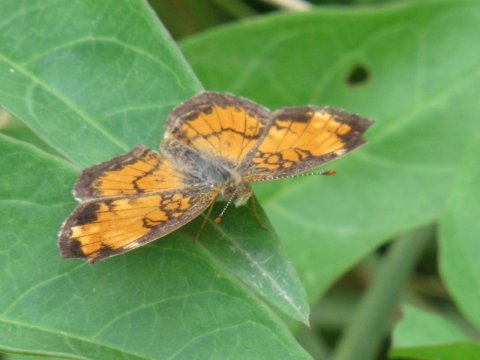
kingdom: Animalia
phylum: Arthropoda
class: Insecta
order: Lepidoptera
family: Nymphalidae
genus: Phyciodes
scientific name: Phyciodes
